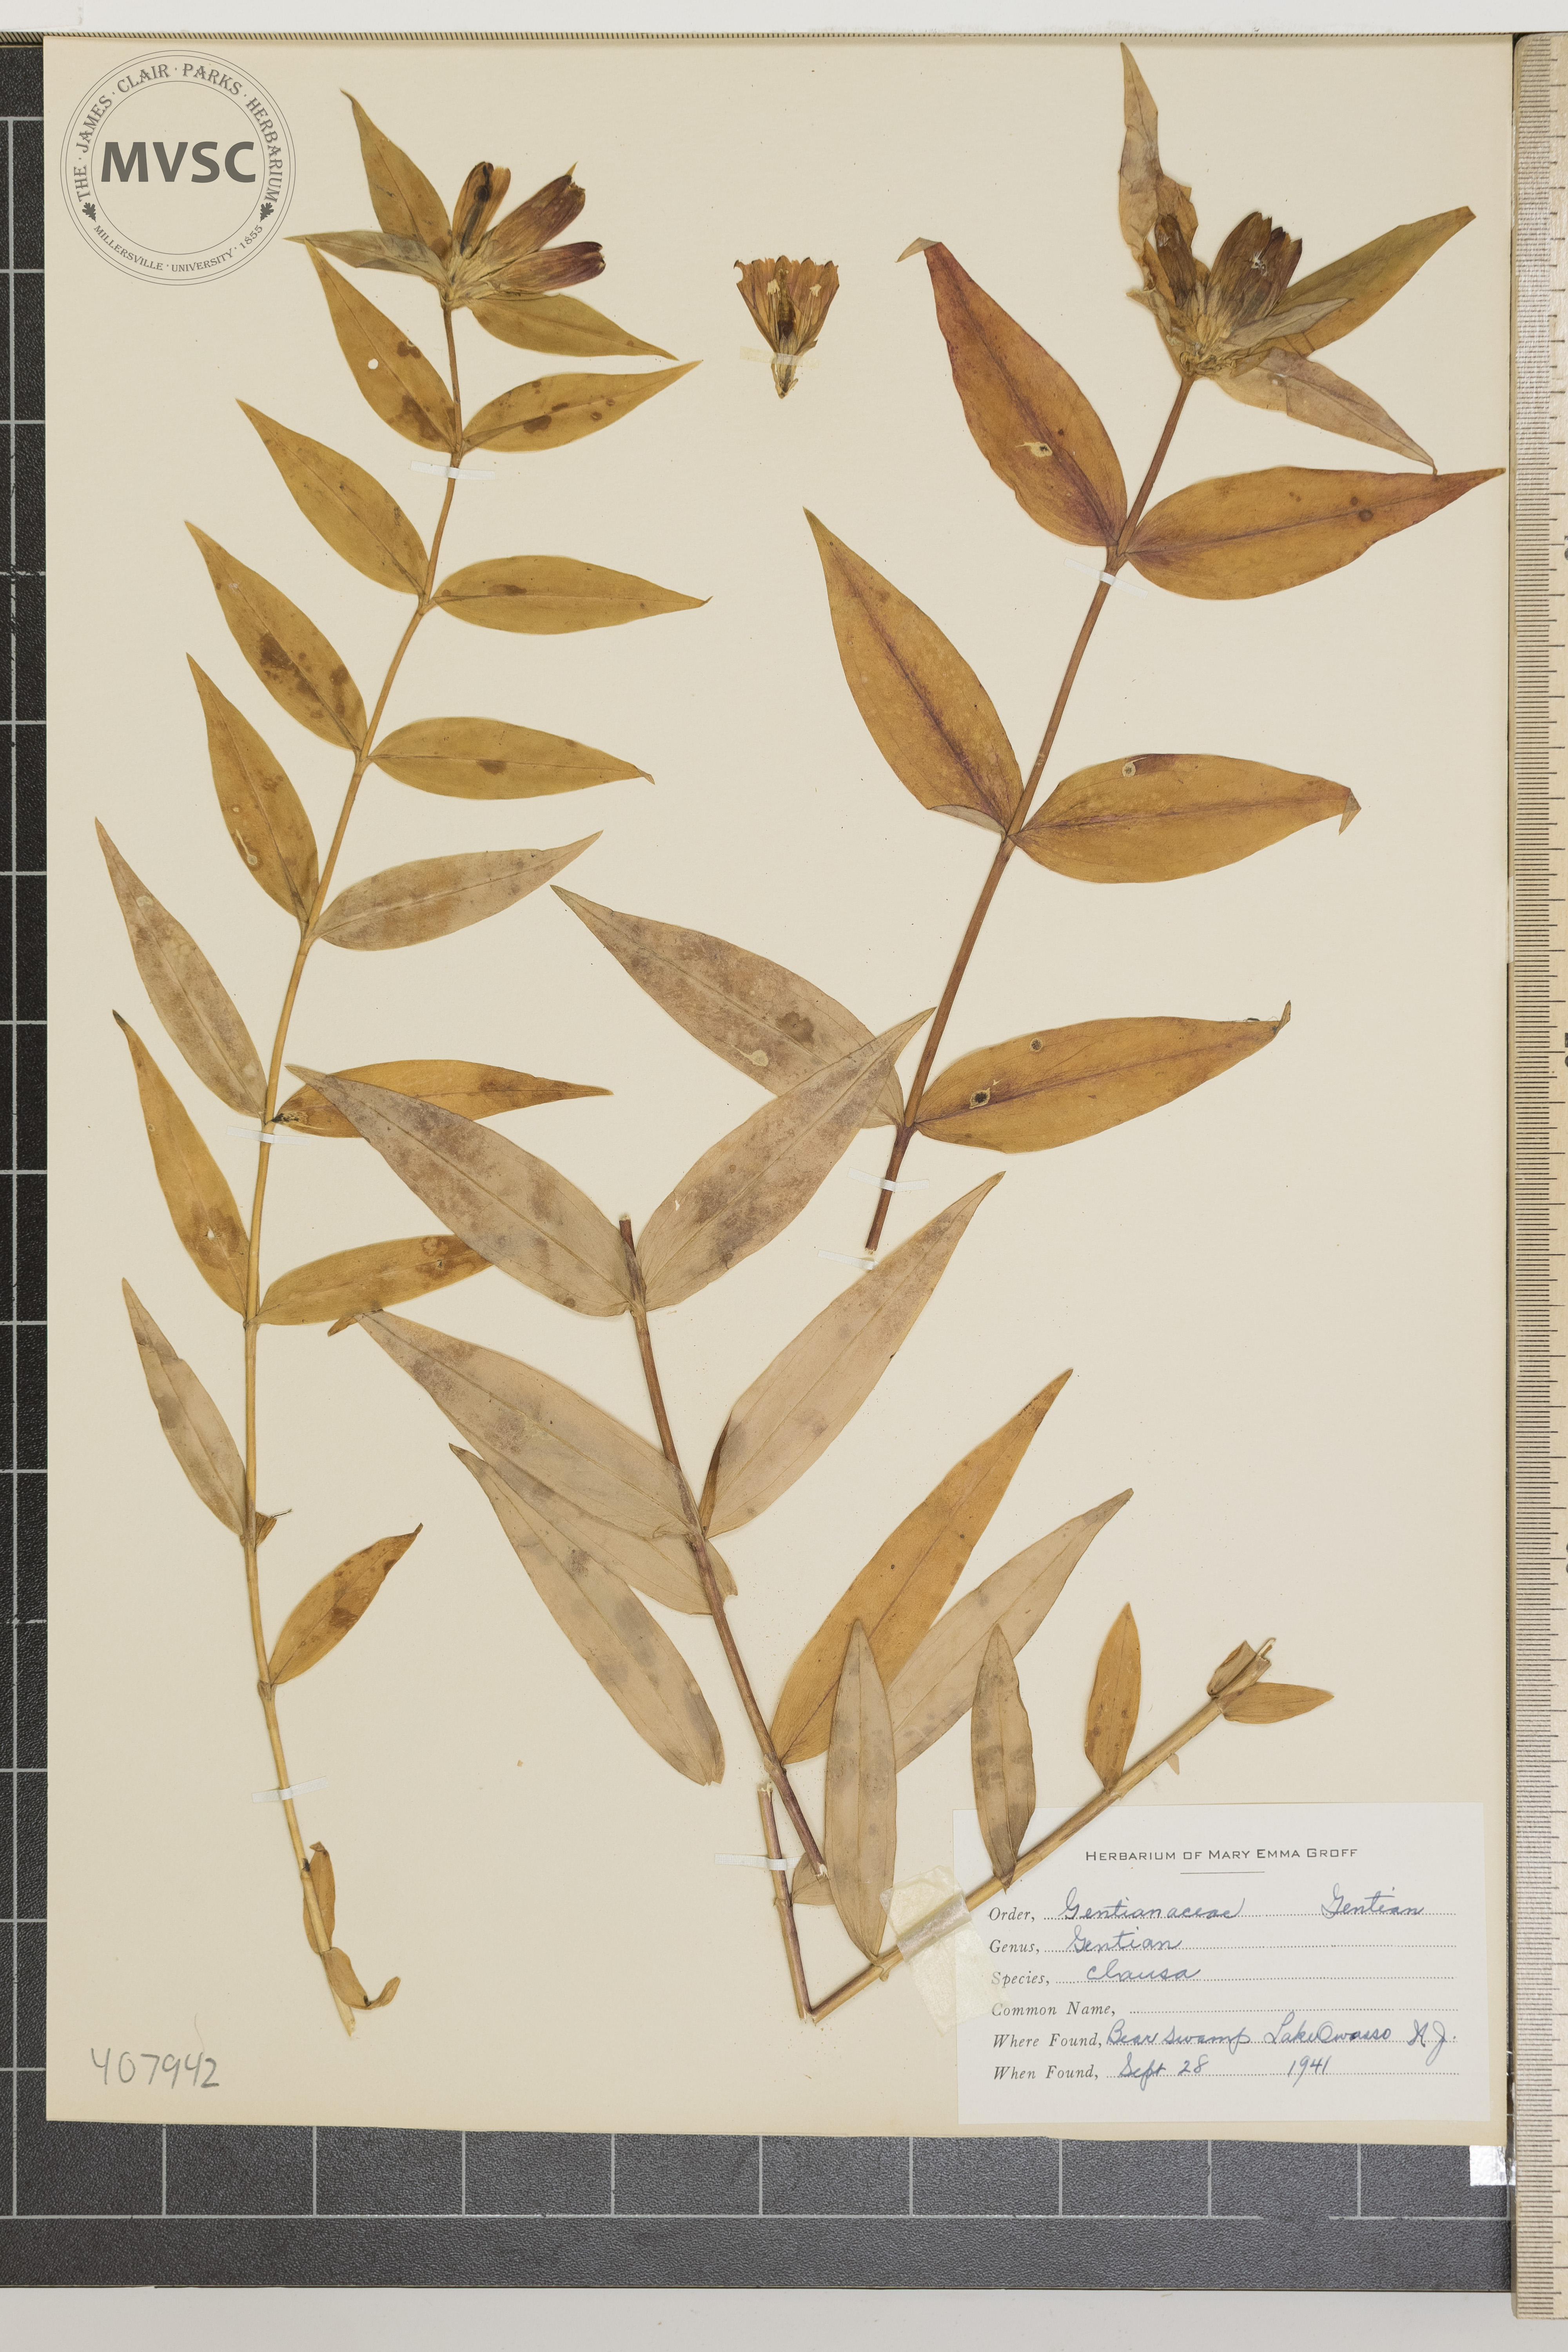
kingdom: Plantae
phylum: Tracheophyta
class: Magnoliopsida
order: Gentianales
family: Gentianaceae
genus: Gentiana
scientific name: Gentiana clausa
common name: Gentian
